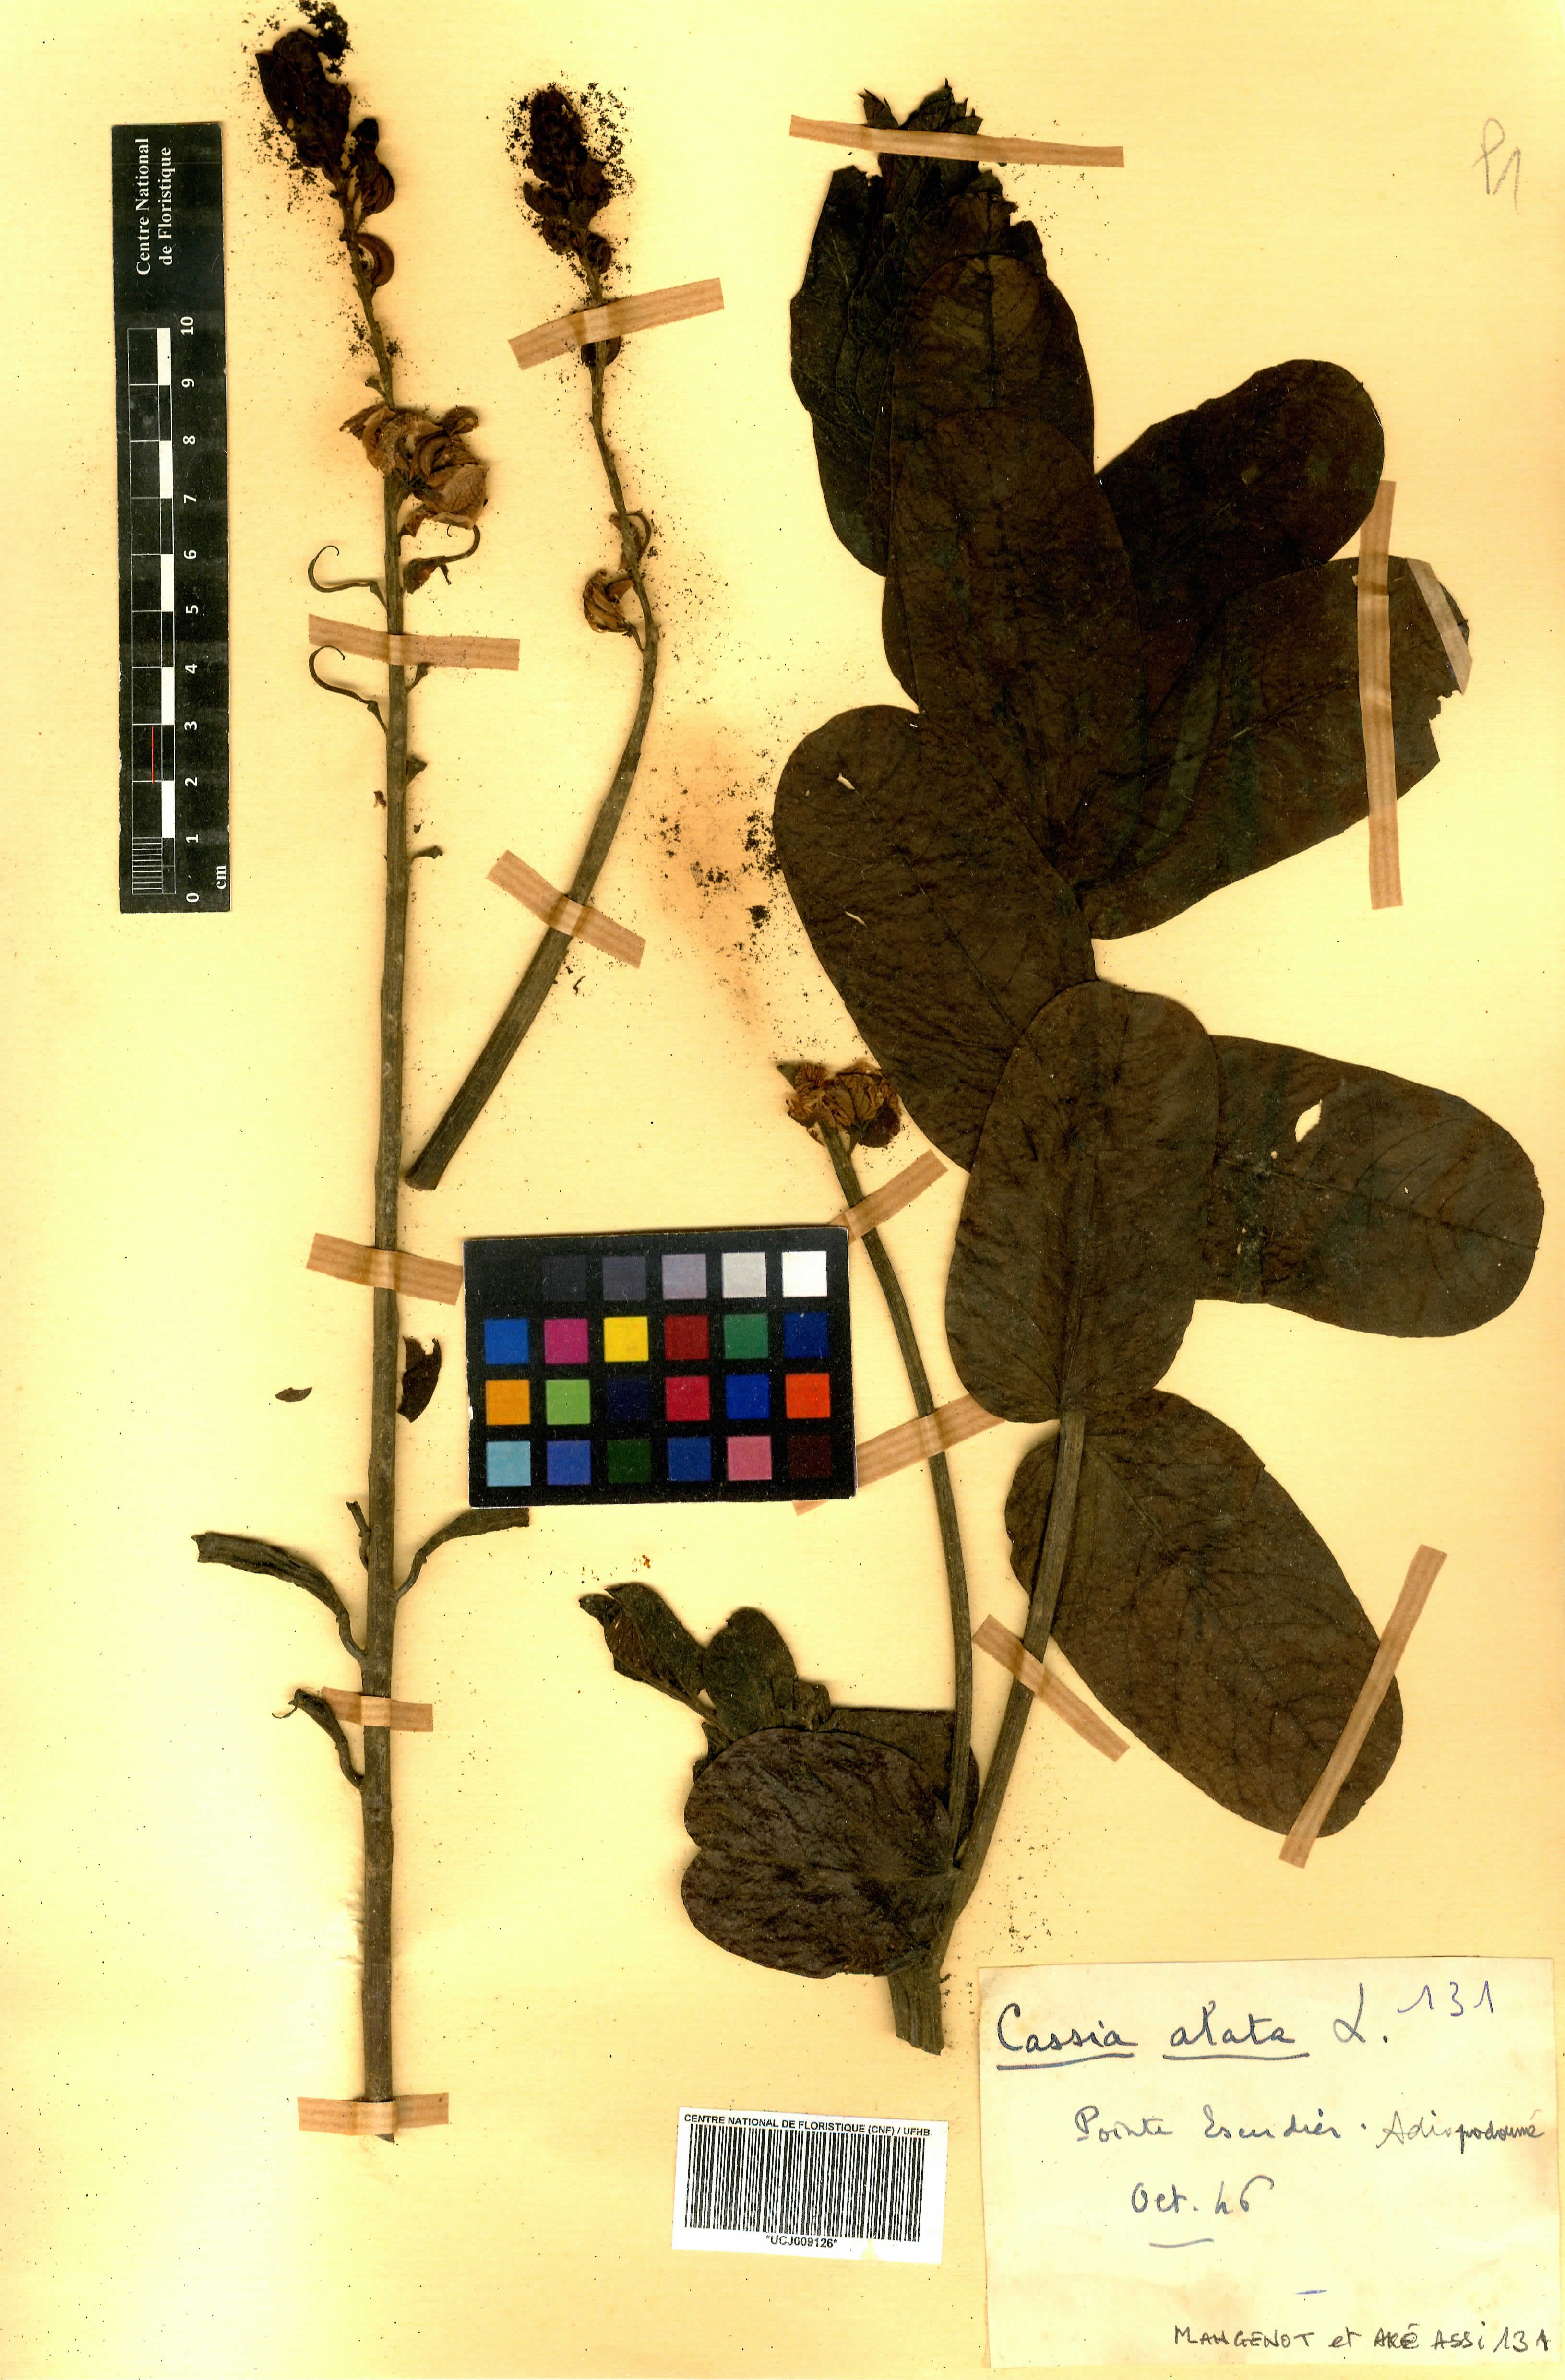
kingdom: Plantae
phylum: Tracheophyta
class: Magnoliopsida
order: Fabales
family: Fabaceae
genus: Senna
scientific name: Senna alata
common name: Emperor's candlesticks
